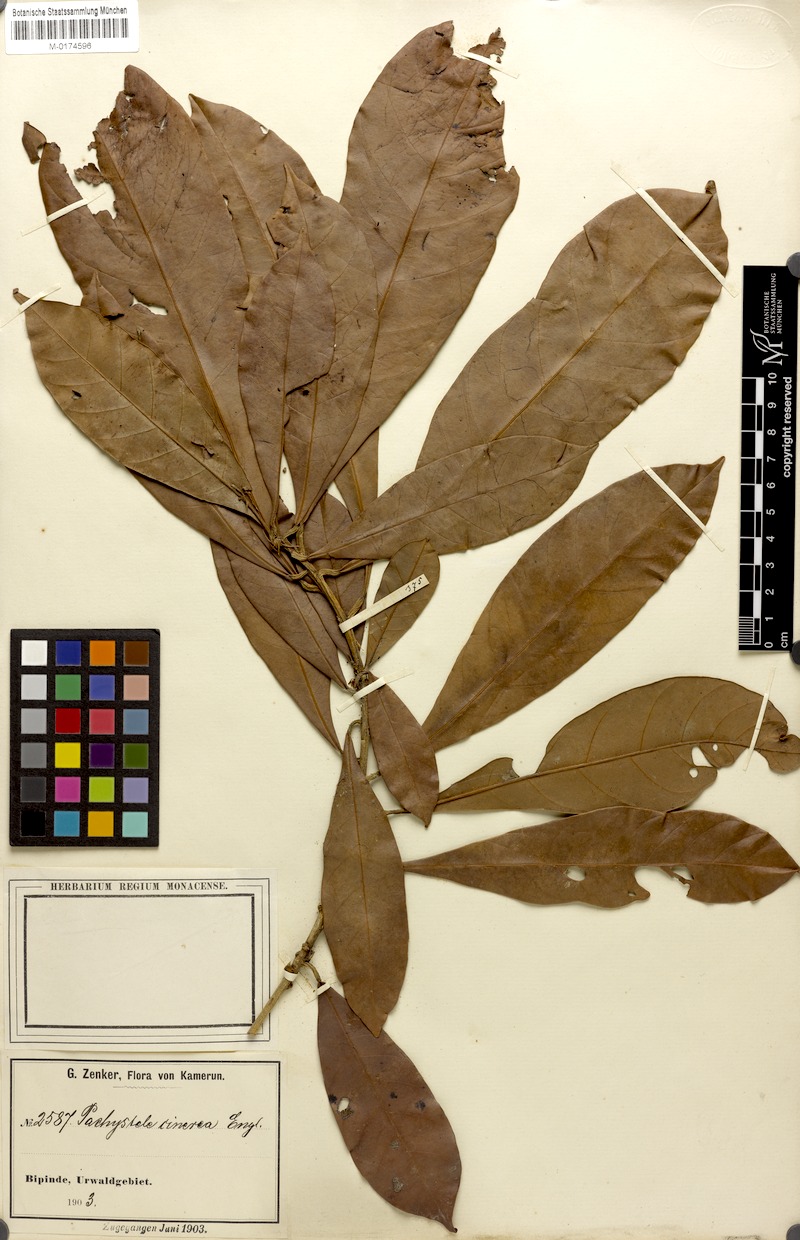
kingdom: Plantae
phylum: Tracheophyta
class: Magnoliopsida
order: Ericales
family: Sapotaceae
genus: Synsepalum
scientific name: Synsepalum brevipes
